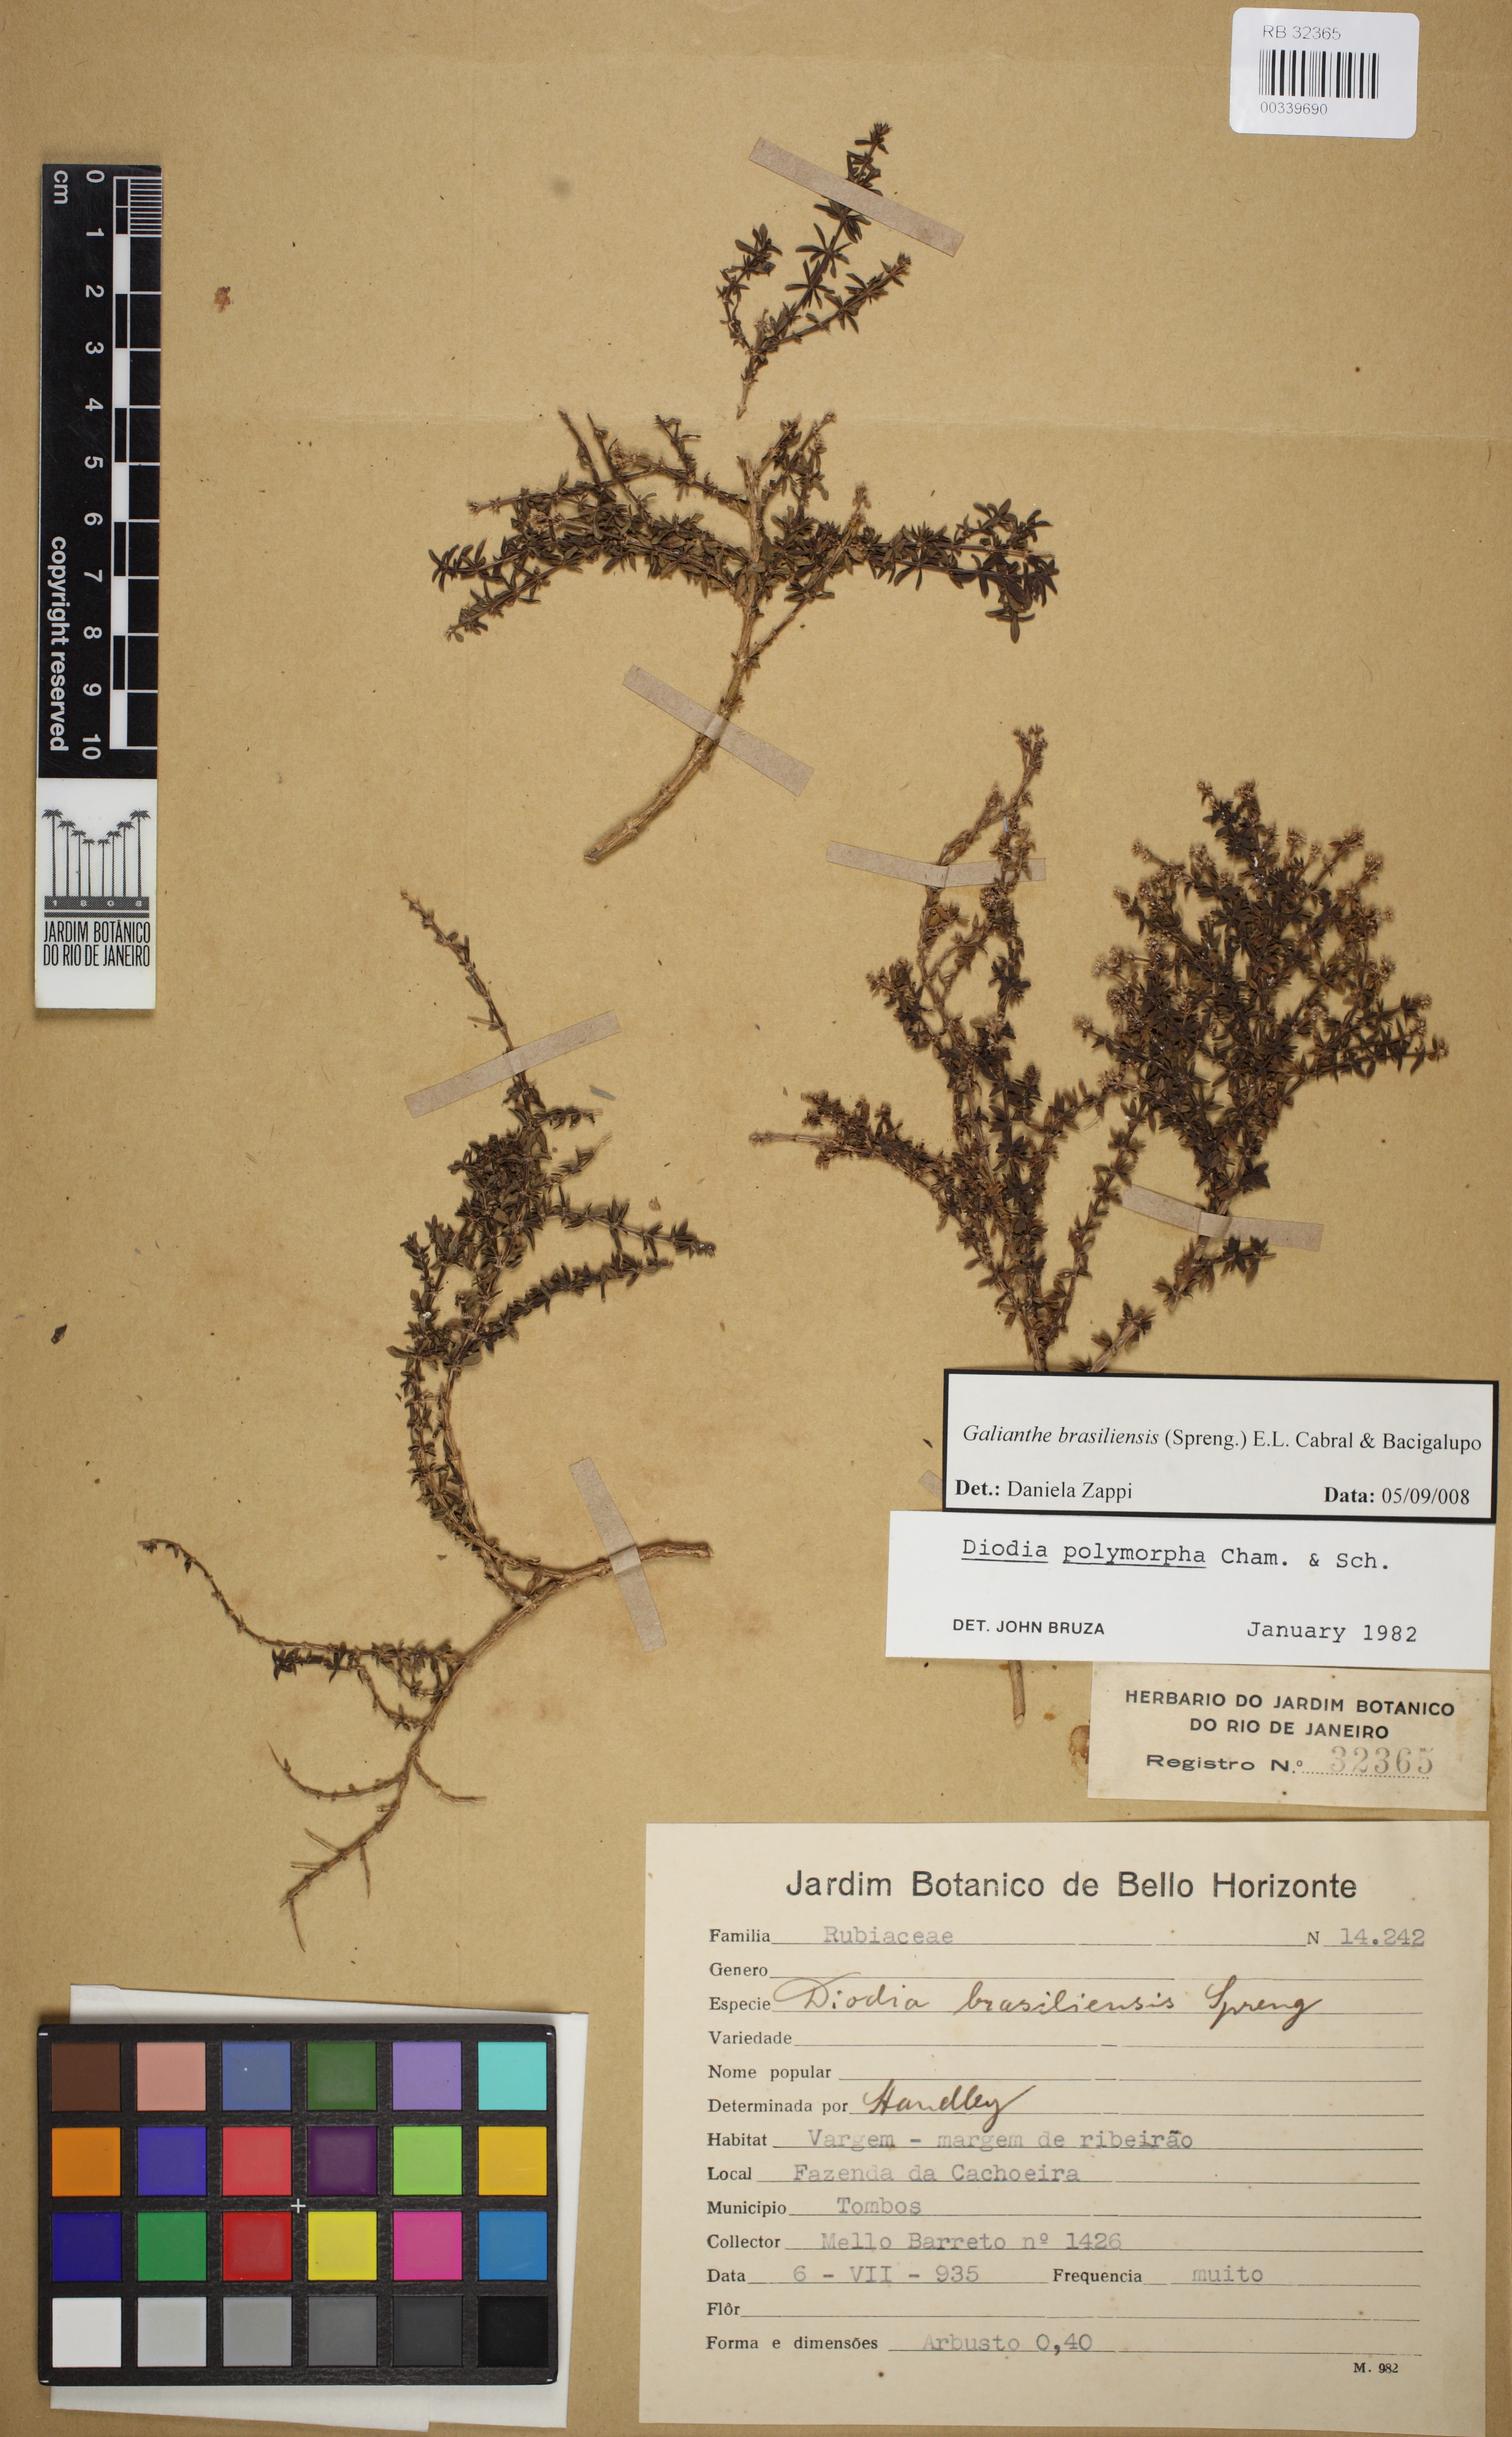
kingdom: Plantae
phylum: Tracheophyta
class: Magnoliopsida
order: Gentianales
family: Rubiaceae
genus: Galianthe
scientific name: Galianthe brasiliensis
